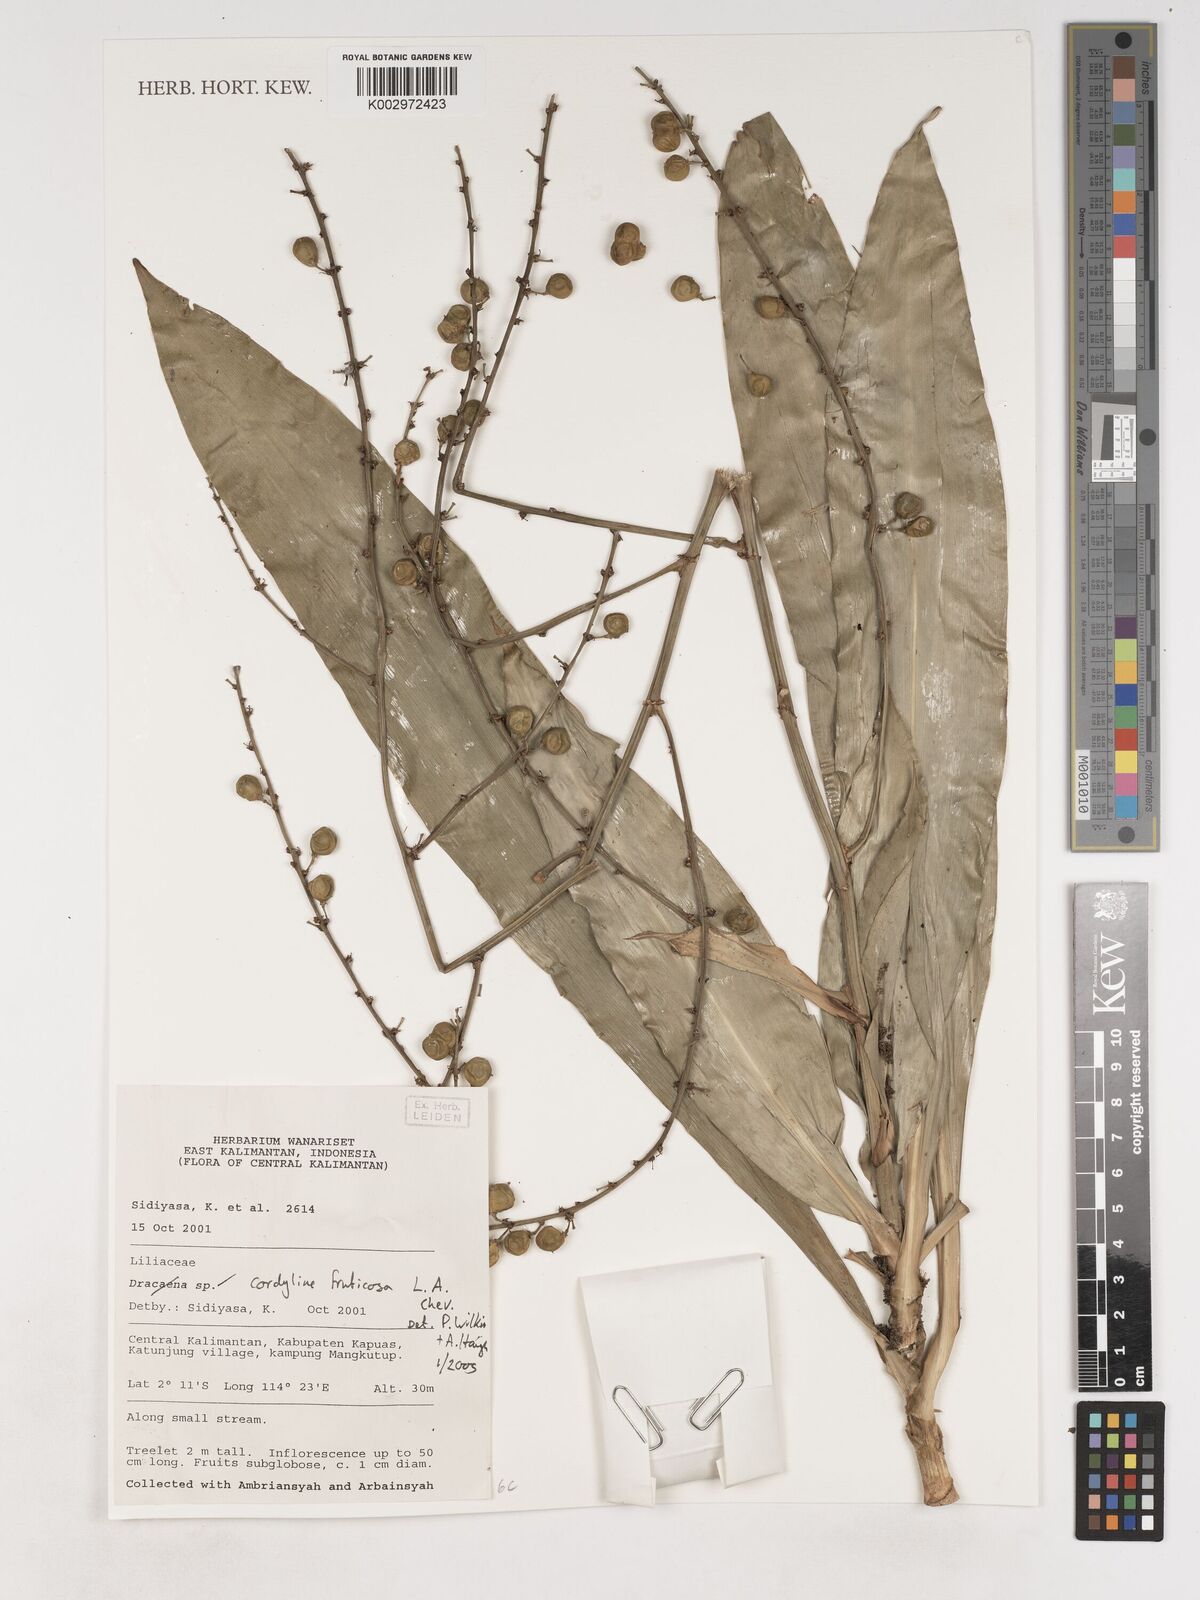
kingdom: Plantae
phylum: Tracheophyta
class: Liliopsida
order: Asparagales
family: Asparagaceae
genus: Cordyline
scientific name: Cordyline
